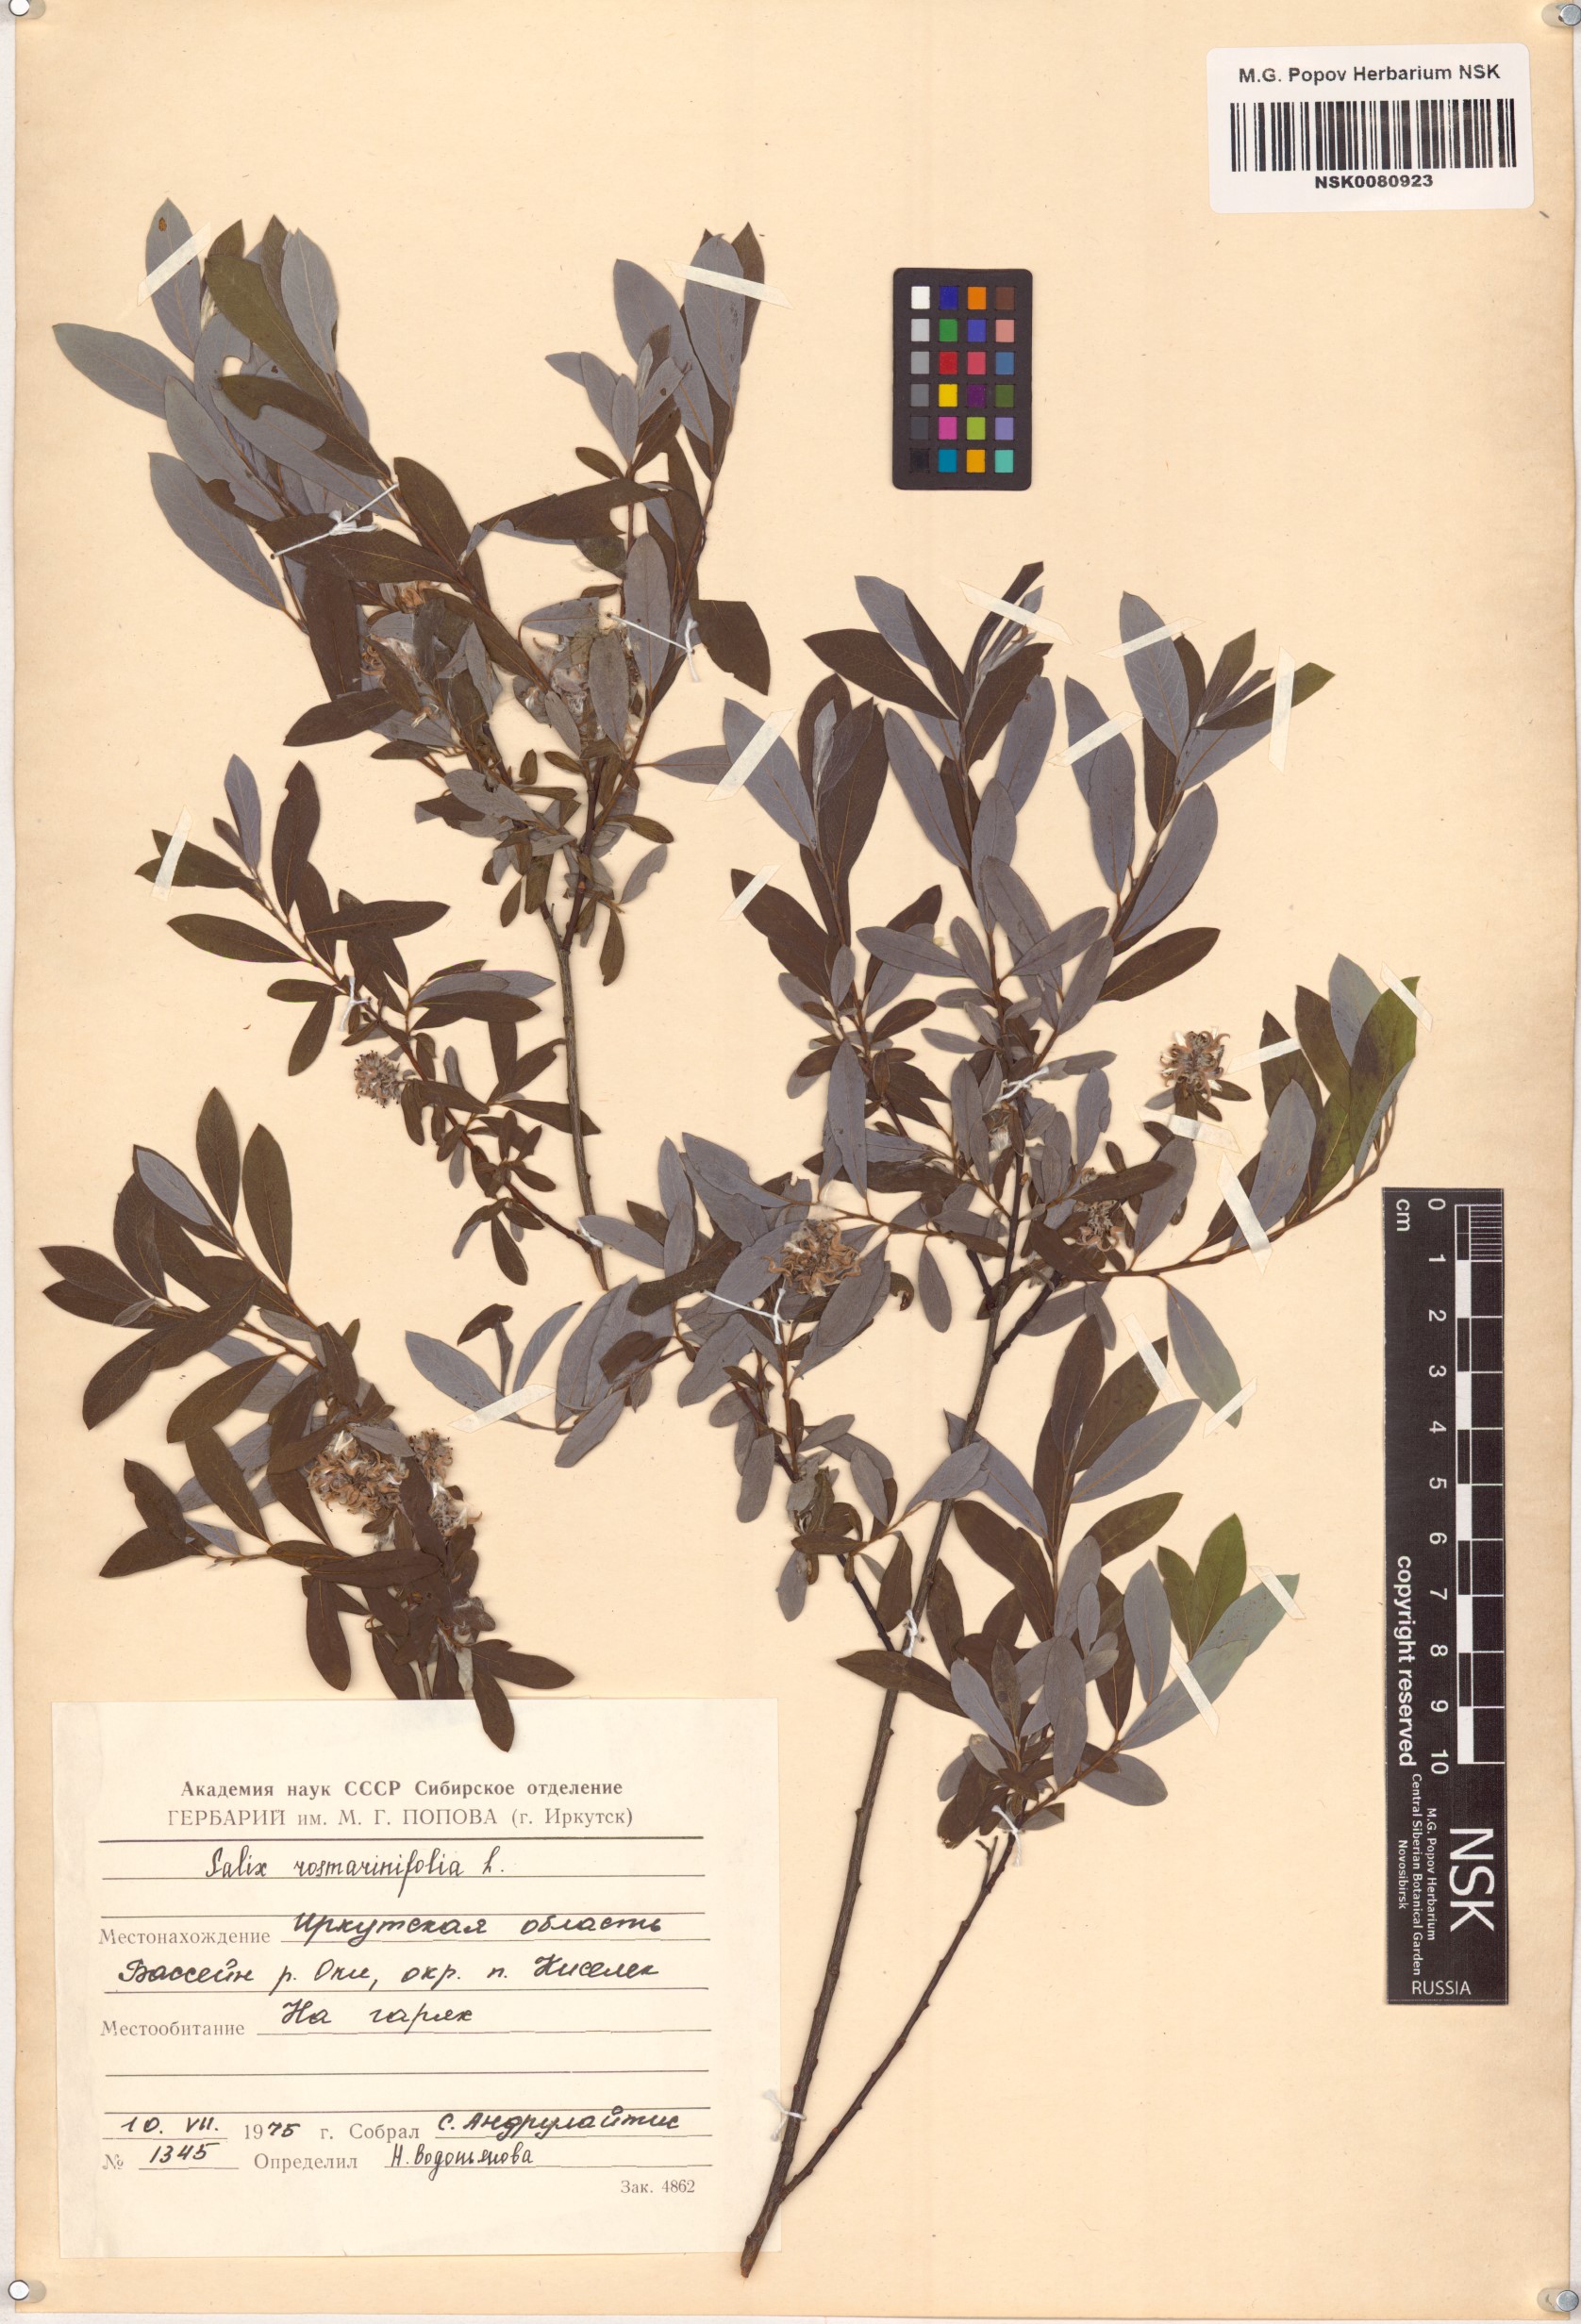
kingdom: Plantae
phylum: Tracheophyta
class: Magnoliopsida
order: Malpighiales
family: Salicaceae
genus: Salix
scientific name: Salix rosmarinifolia
